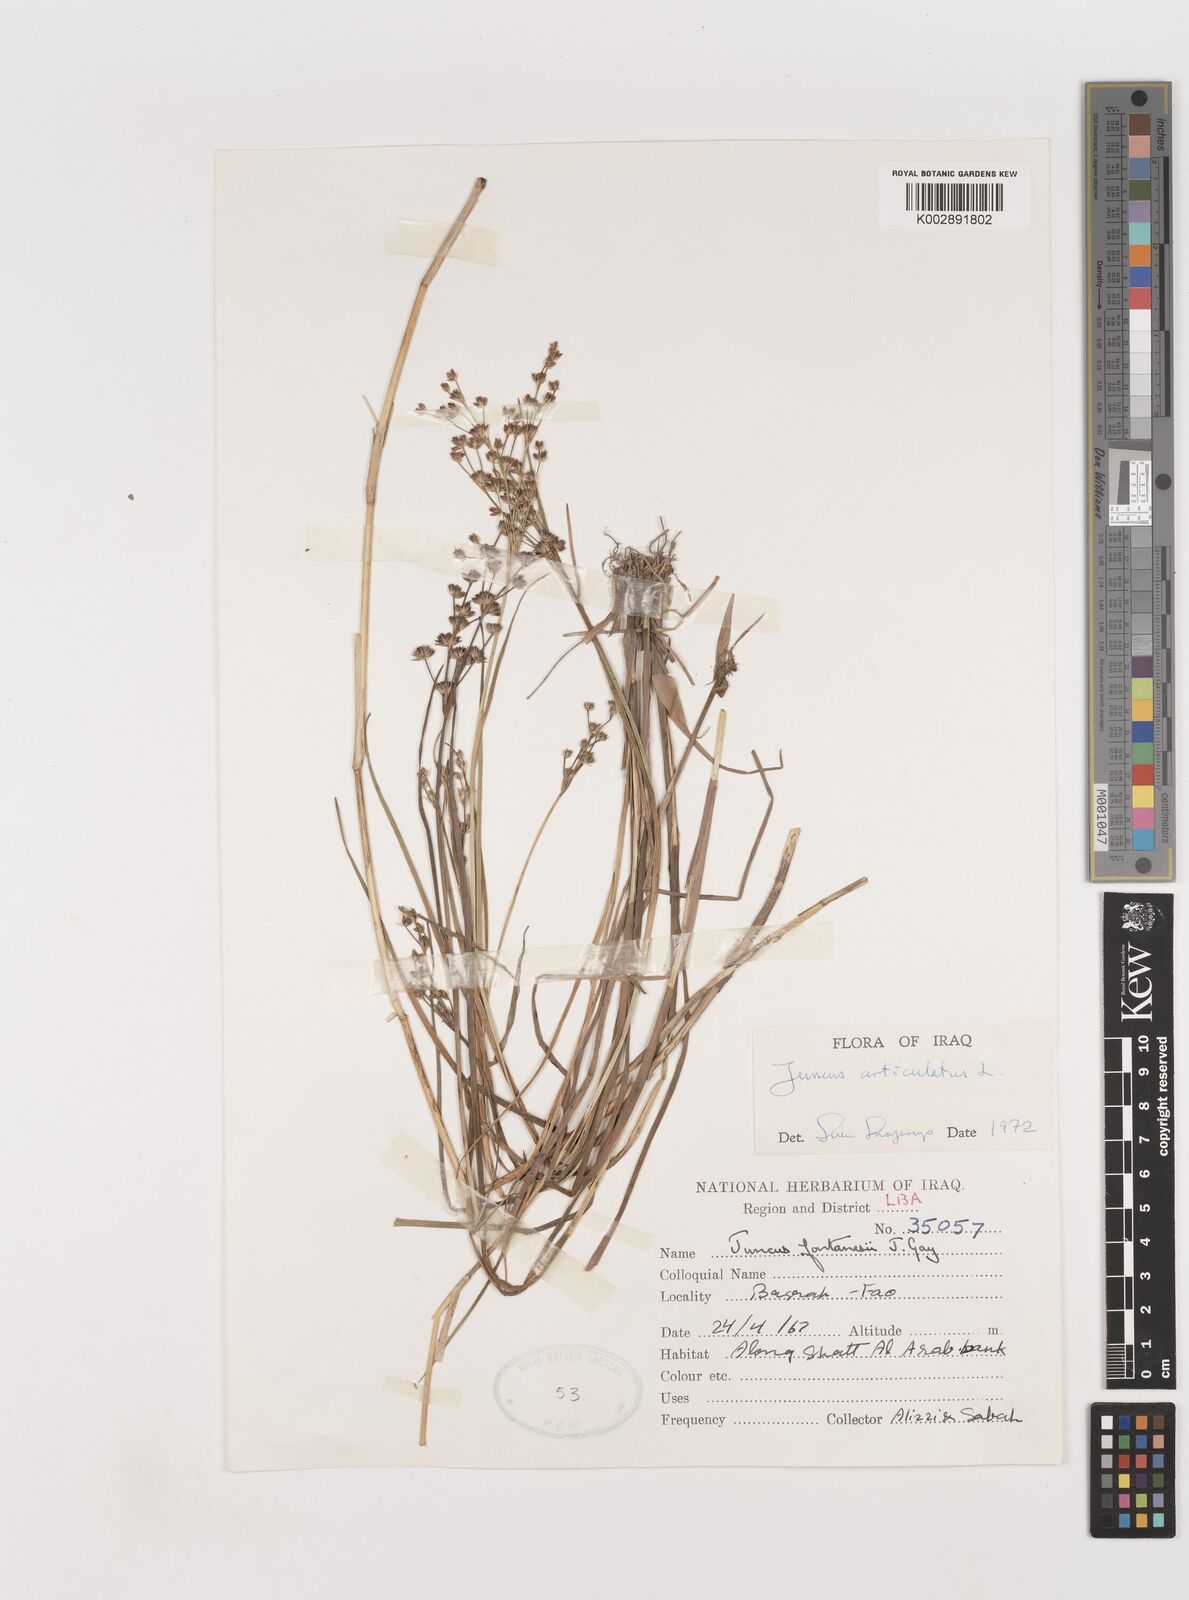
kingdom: Plantae
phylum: Tracheophyta
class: Liliopsida
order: Poales
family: Juncaceae
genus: Juncus
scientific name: Juncus articulatus
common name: Jointed rush
